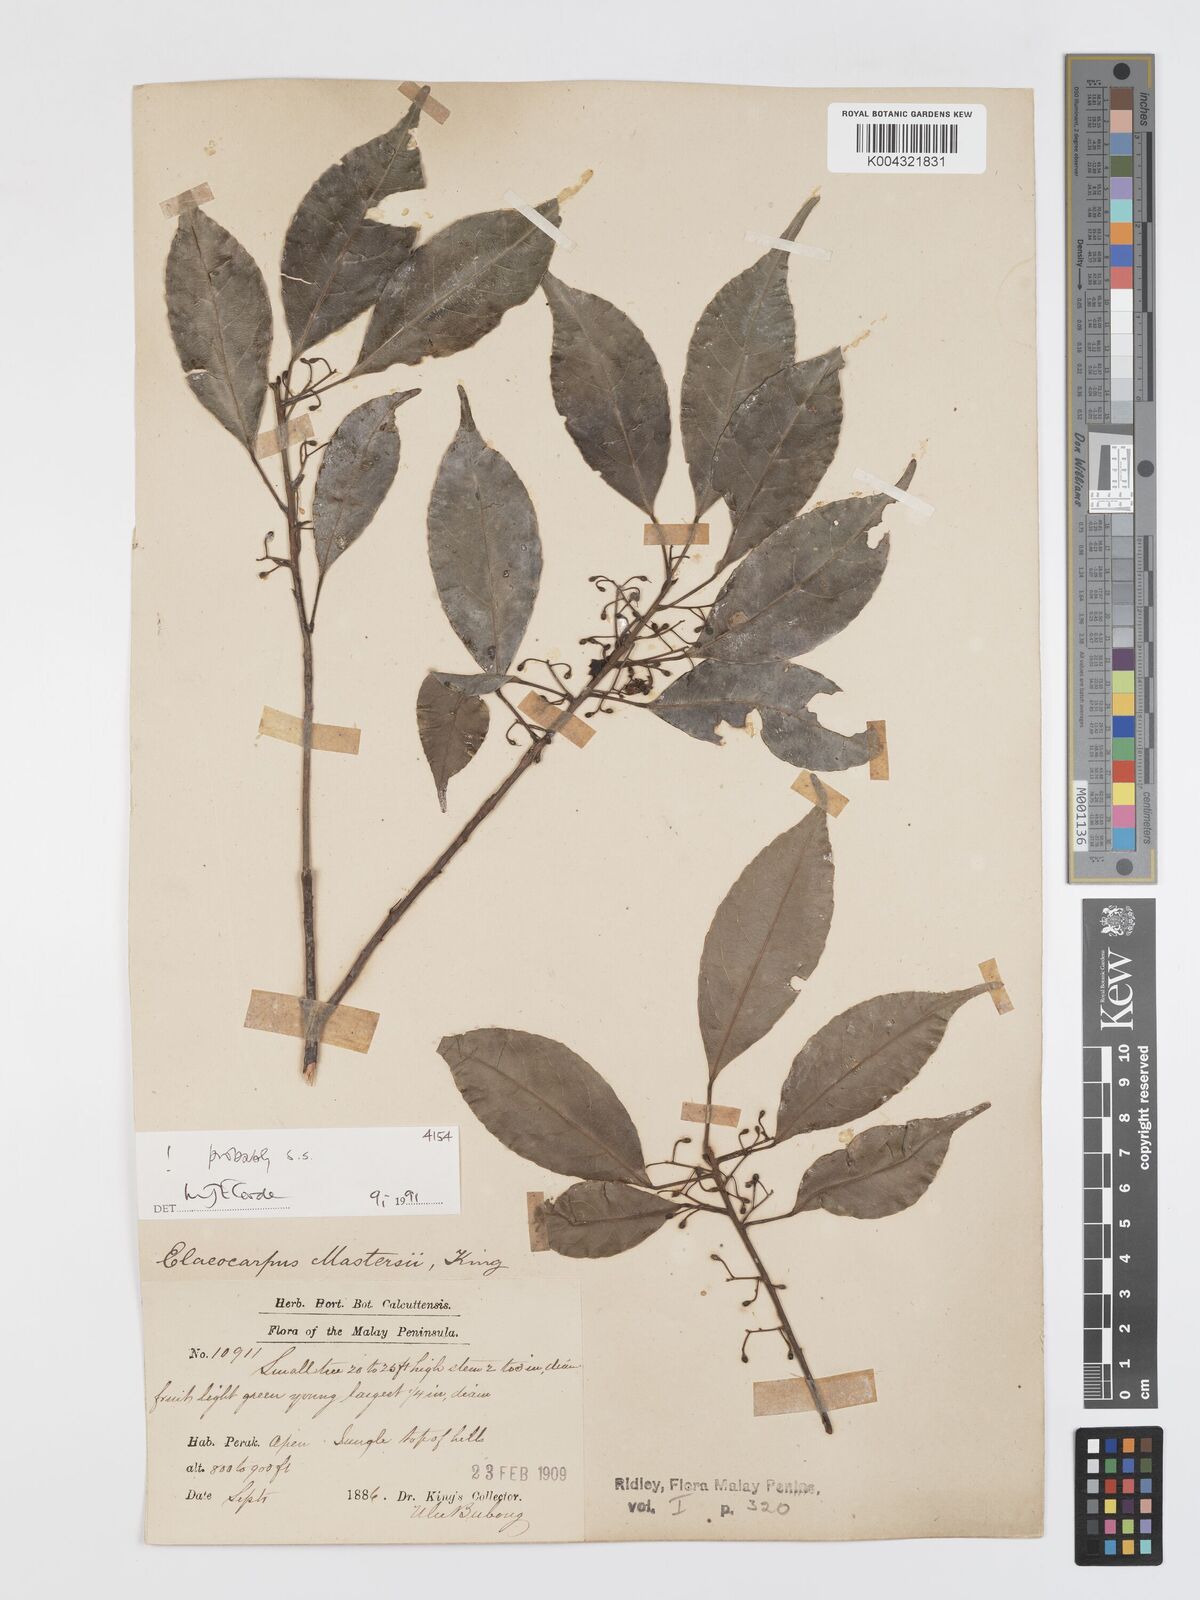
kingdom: Plantae
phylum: Tracheophyta
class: Magnoliopsida
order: Oxalidales
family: Elaeocarpaceae
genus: Elaeocarpus
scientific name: Elaeocarpus mastersii
